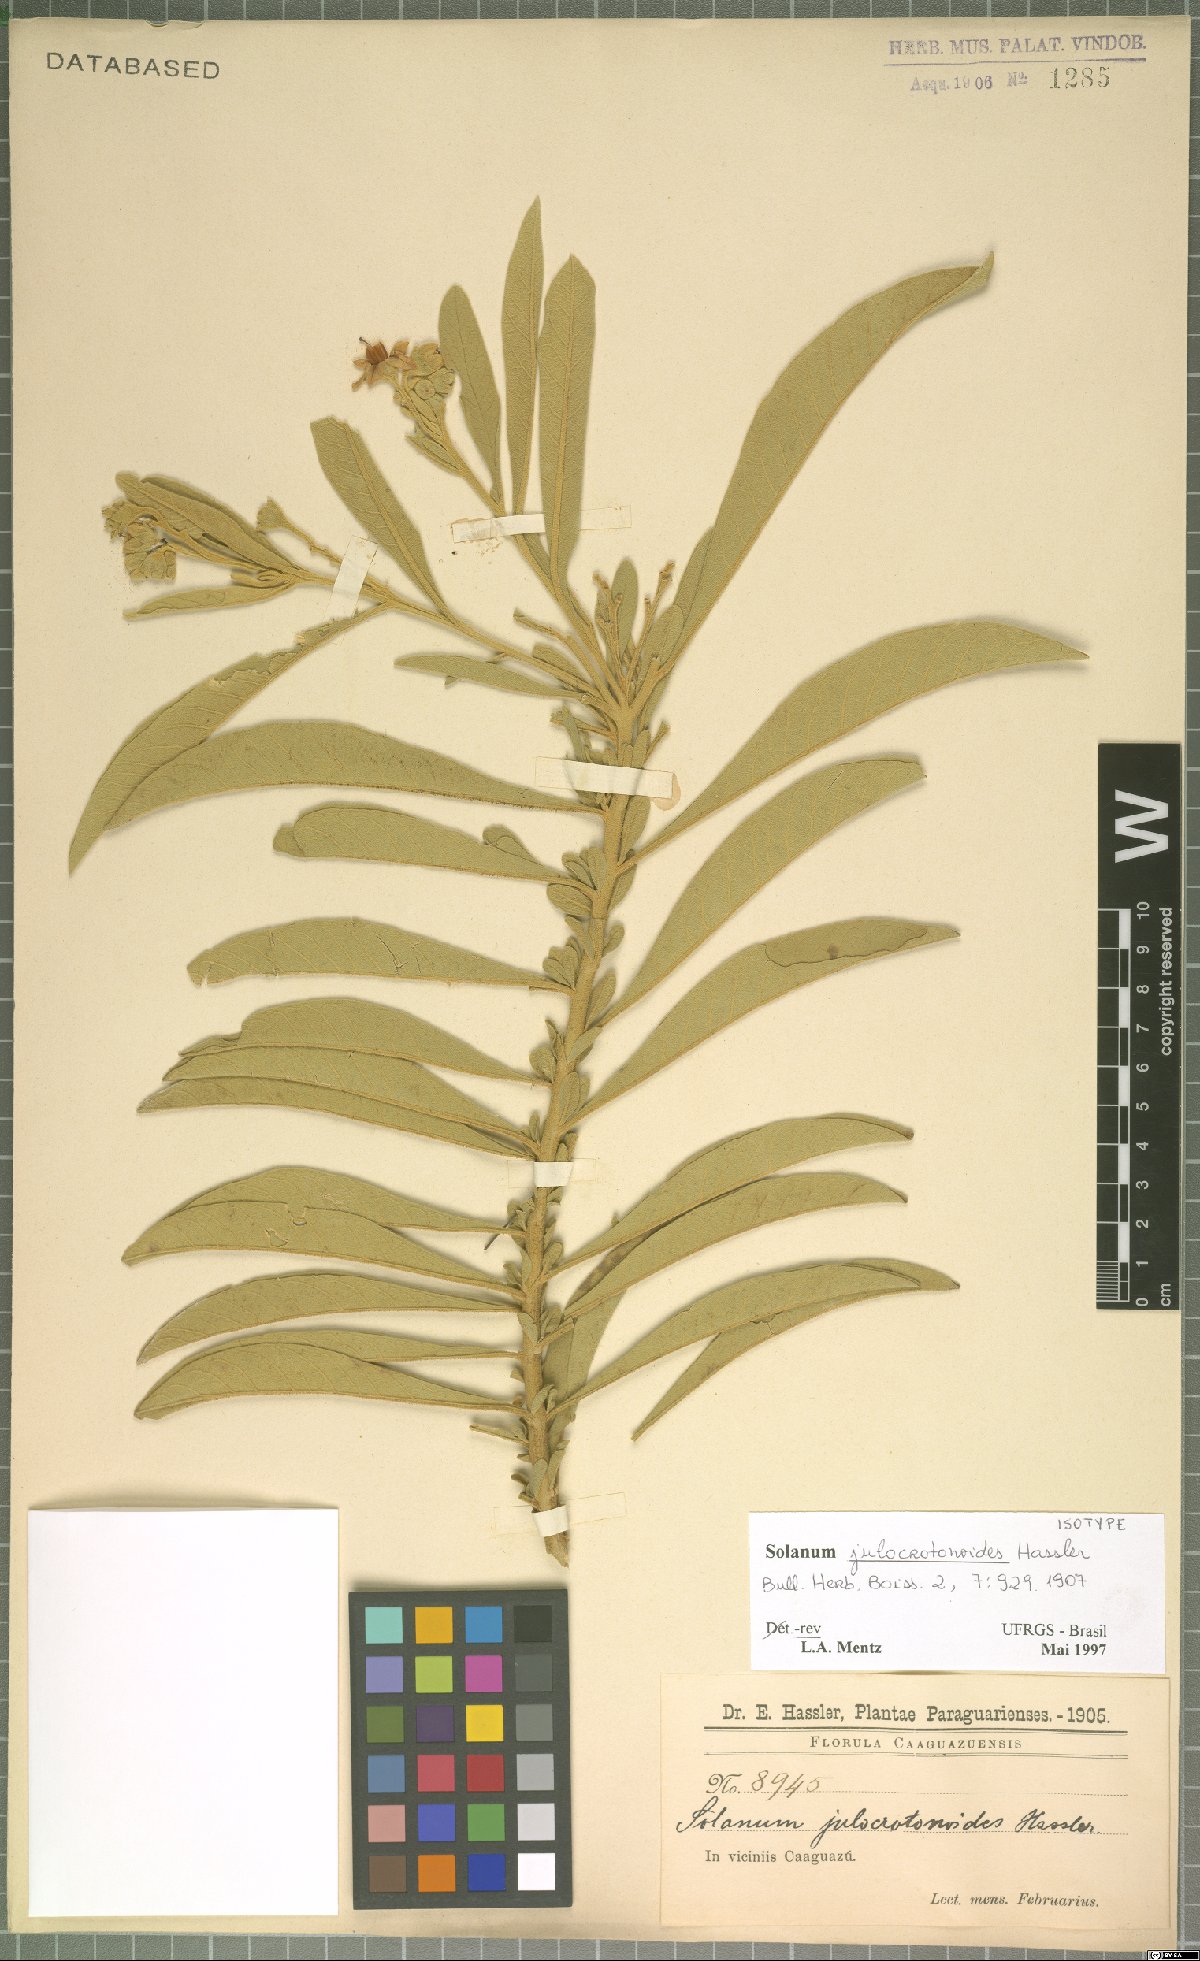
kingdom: Plantae
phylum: Tracheophyta
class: Magnoliopsida
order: Solanales
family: Solanaceae
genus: Solanum
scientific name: Solanum julocrotonoides
